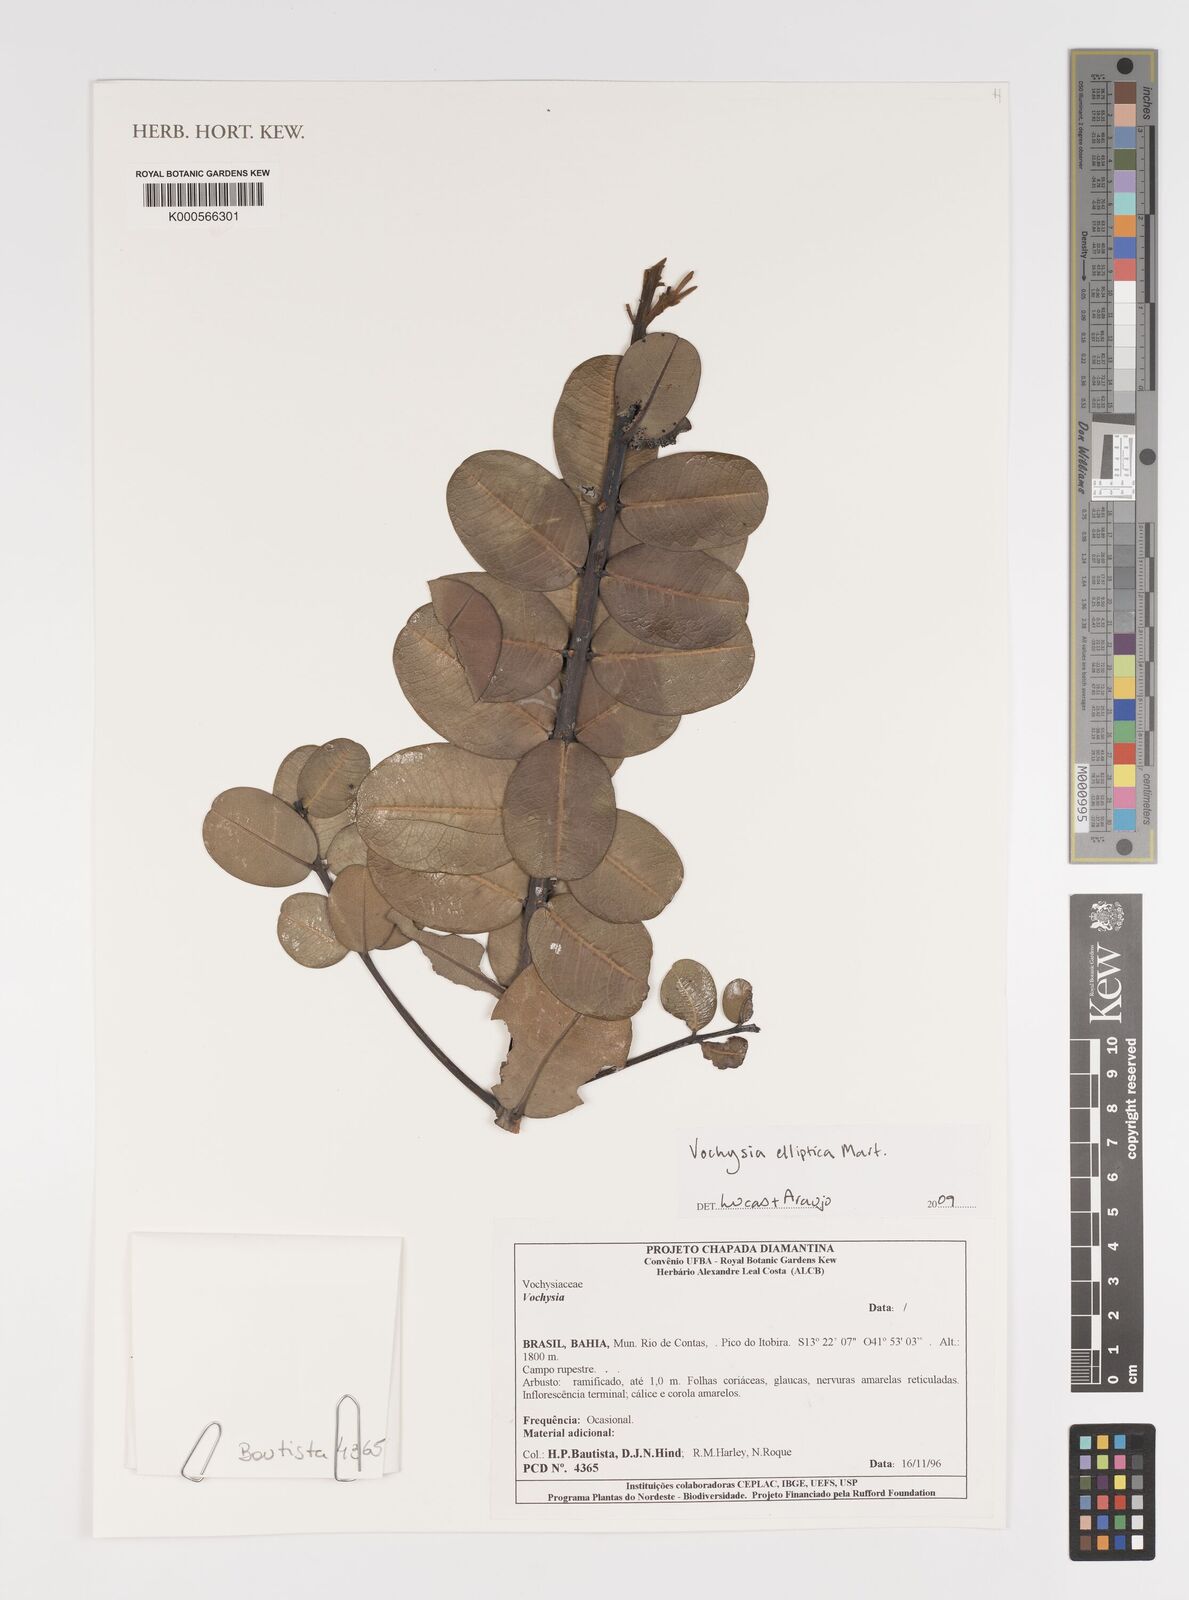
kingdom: Plantae
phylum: Tracheophyta
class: Magnoliopsida
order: Myrtales
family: Vochysiaceae
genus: Vochysia
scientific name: Vochysia elliptica
